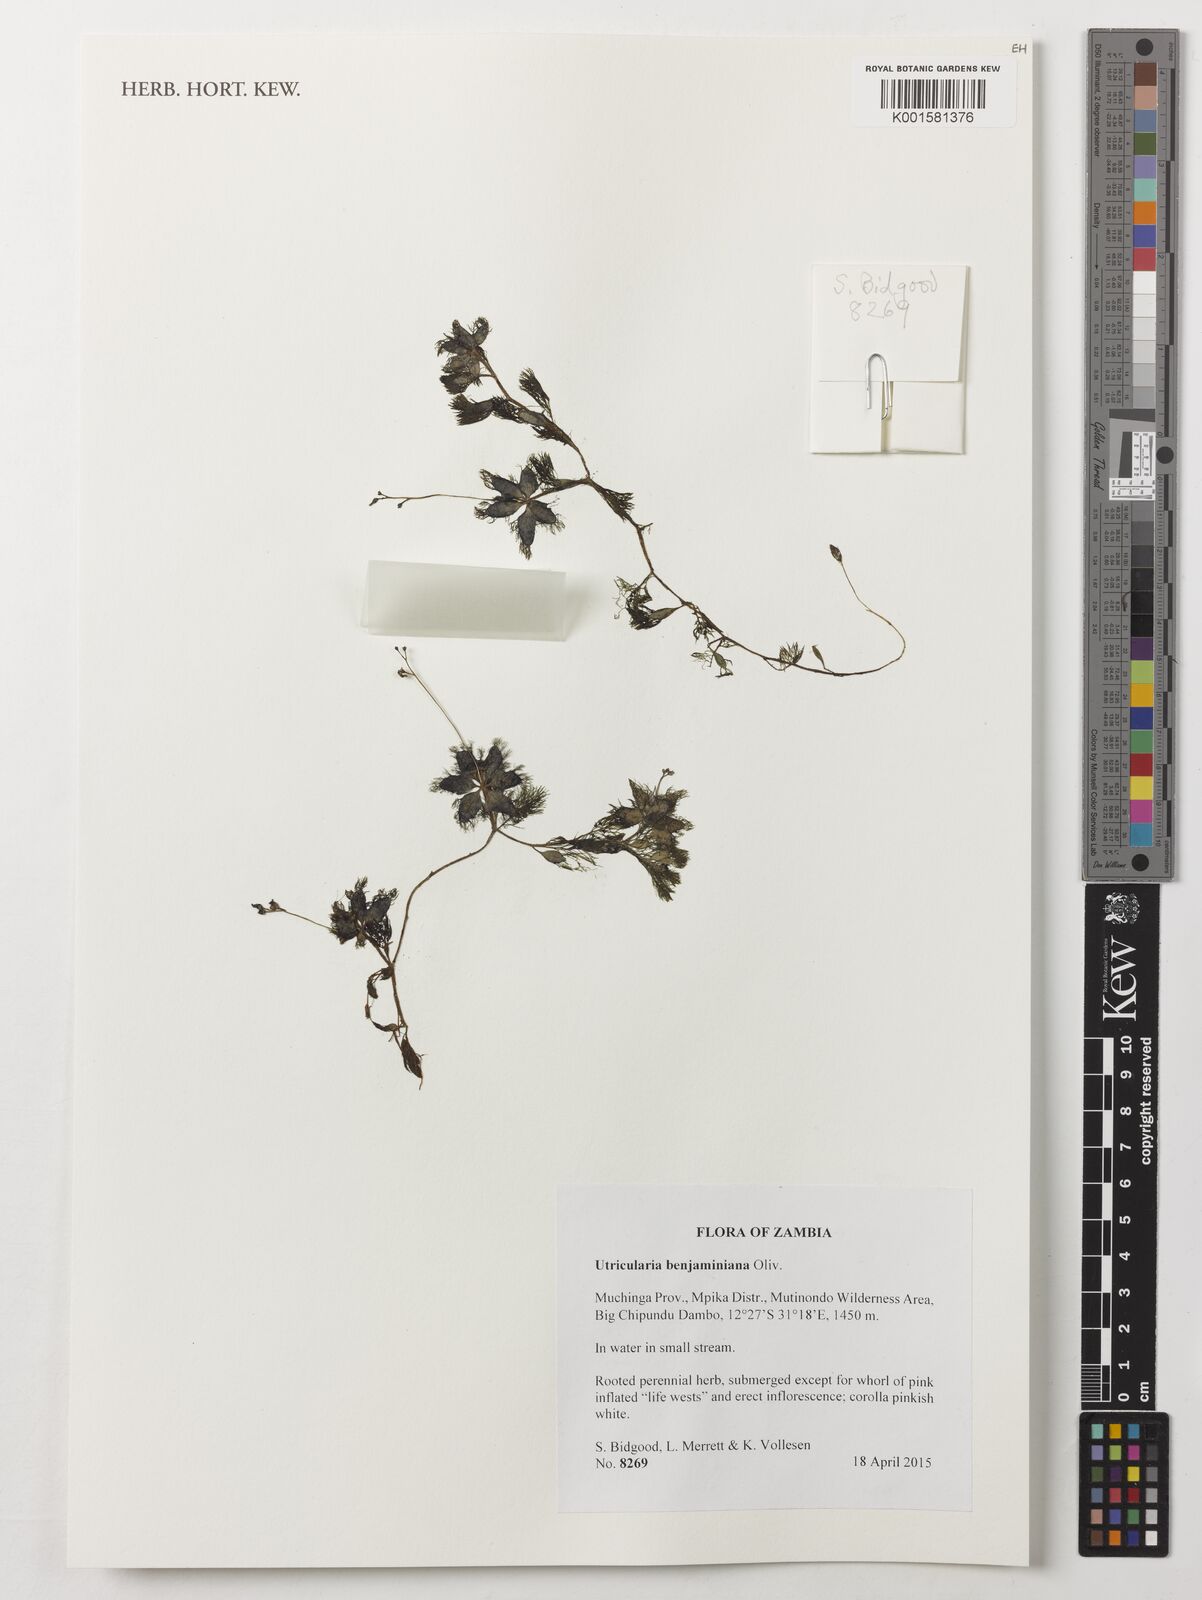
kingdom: Plantae
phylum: Tracheophyta
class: Magnoliopsida
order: Lamiales
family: Lentibulariaceae
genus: Utricularia
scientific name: Utricularia benjaminiana
